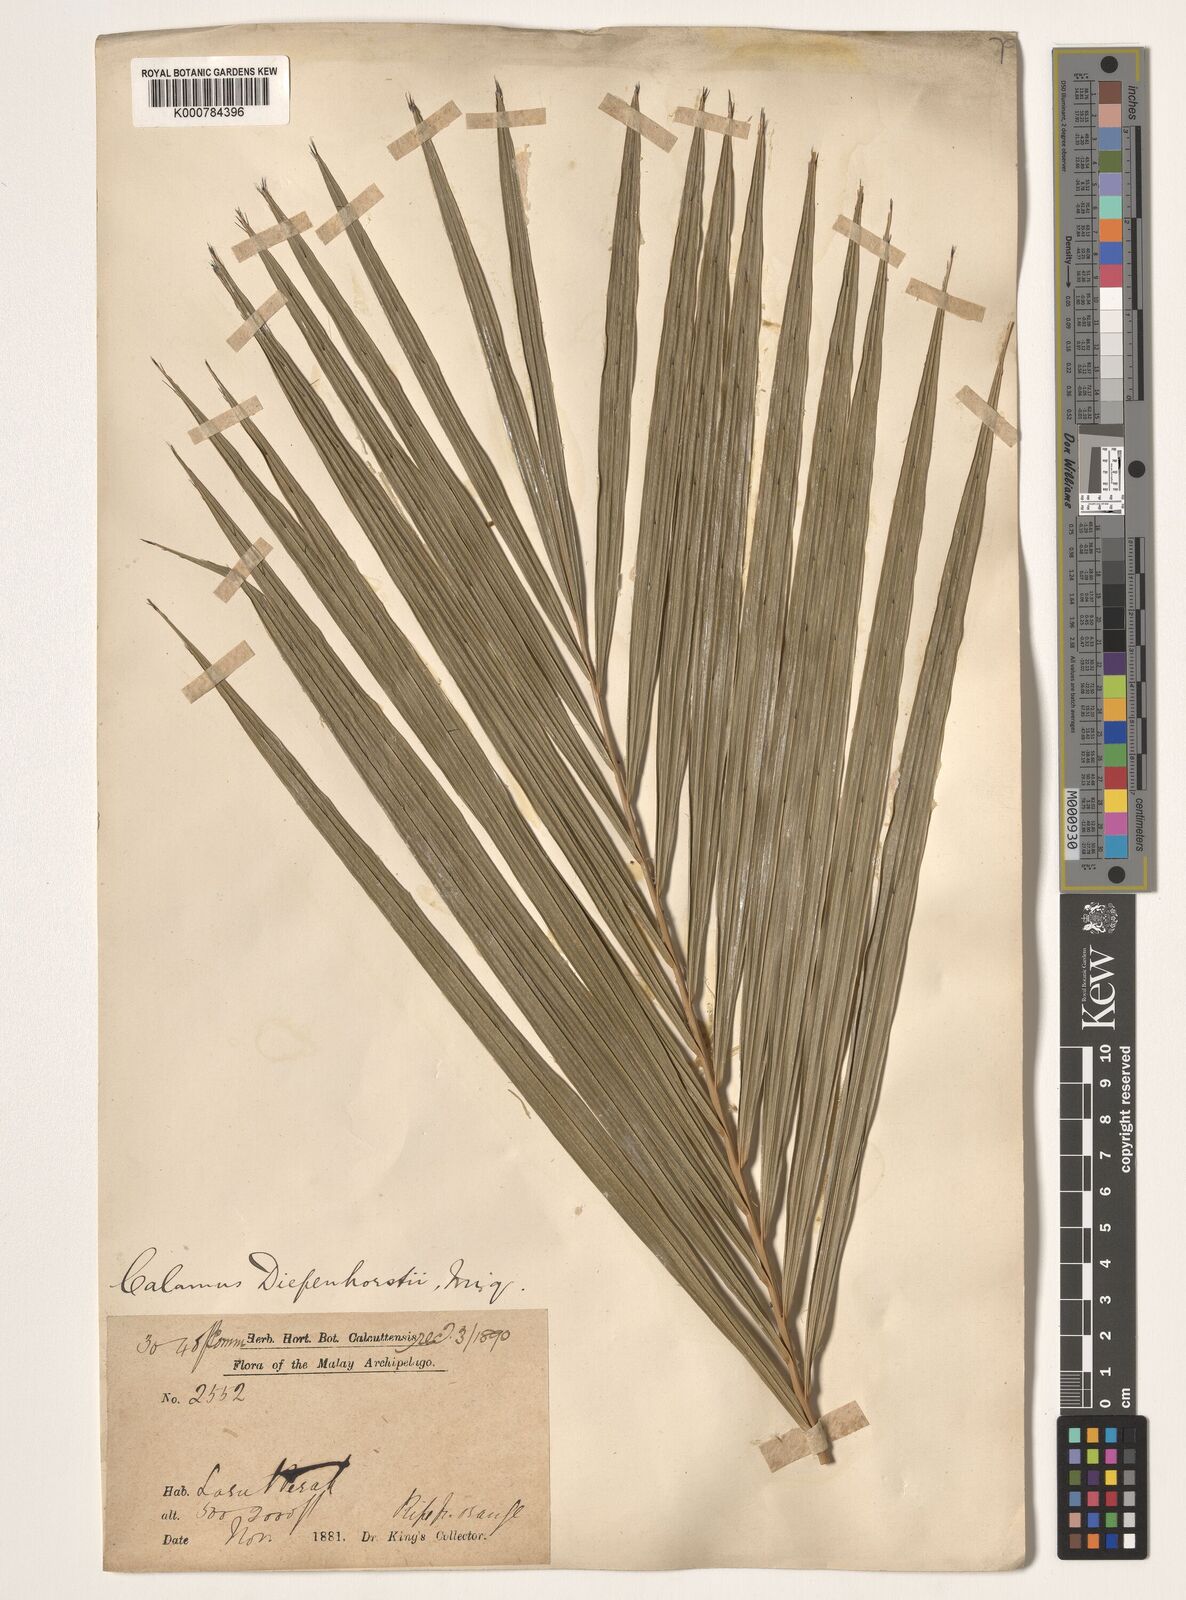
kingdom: Plantae
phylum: Tracheophyta
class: Liliopsida
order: Arecales
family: Arecaceae
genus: Calamus
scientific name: Calamus diepenhorstii
